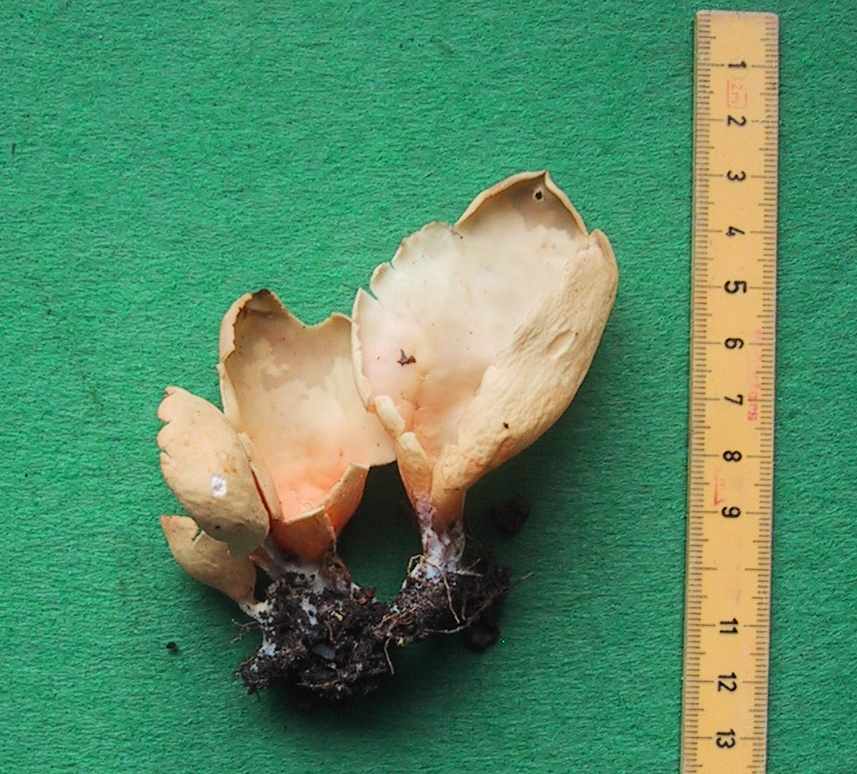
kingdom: Fungi
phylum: Ascomycota
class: Pezizomycetes
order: Pezizales
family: Otideaceae
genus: Otidea
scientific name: Otidea onotica
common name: æsel-ørebæger
